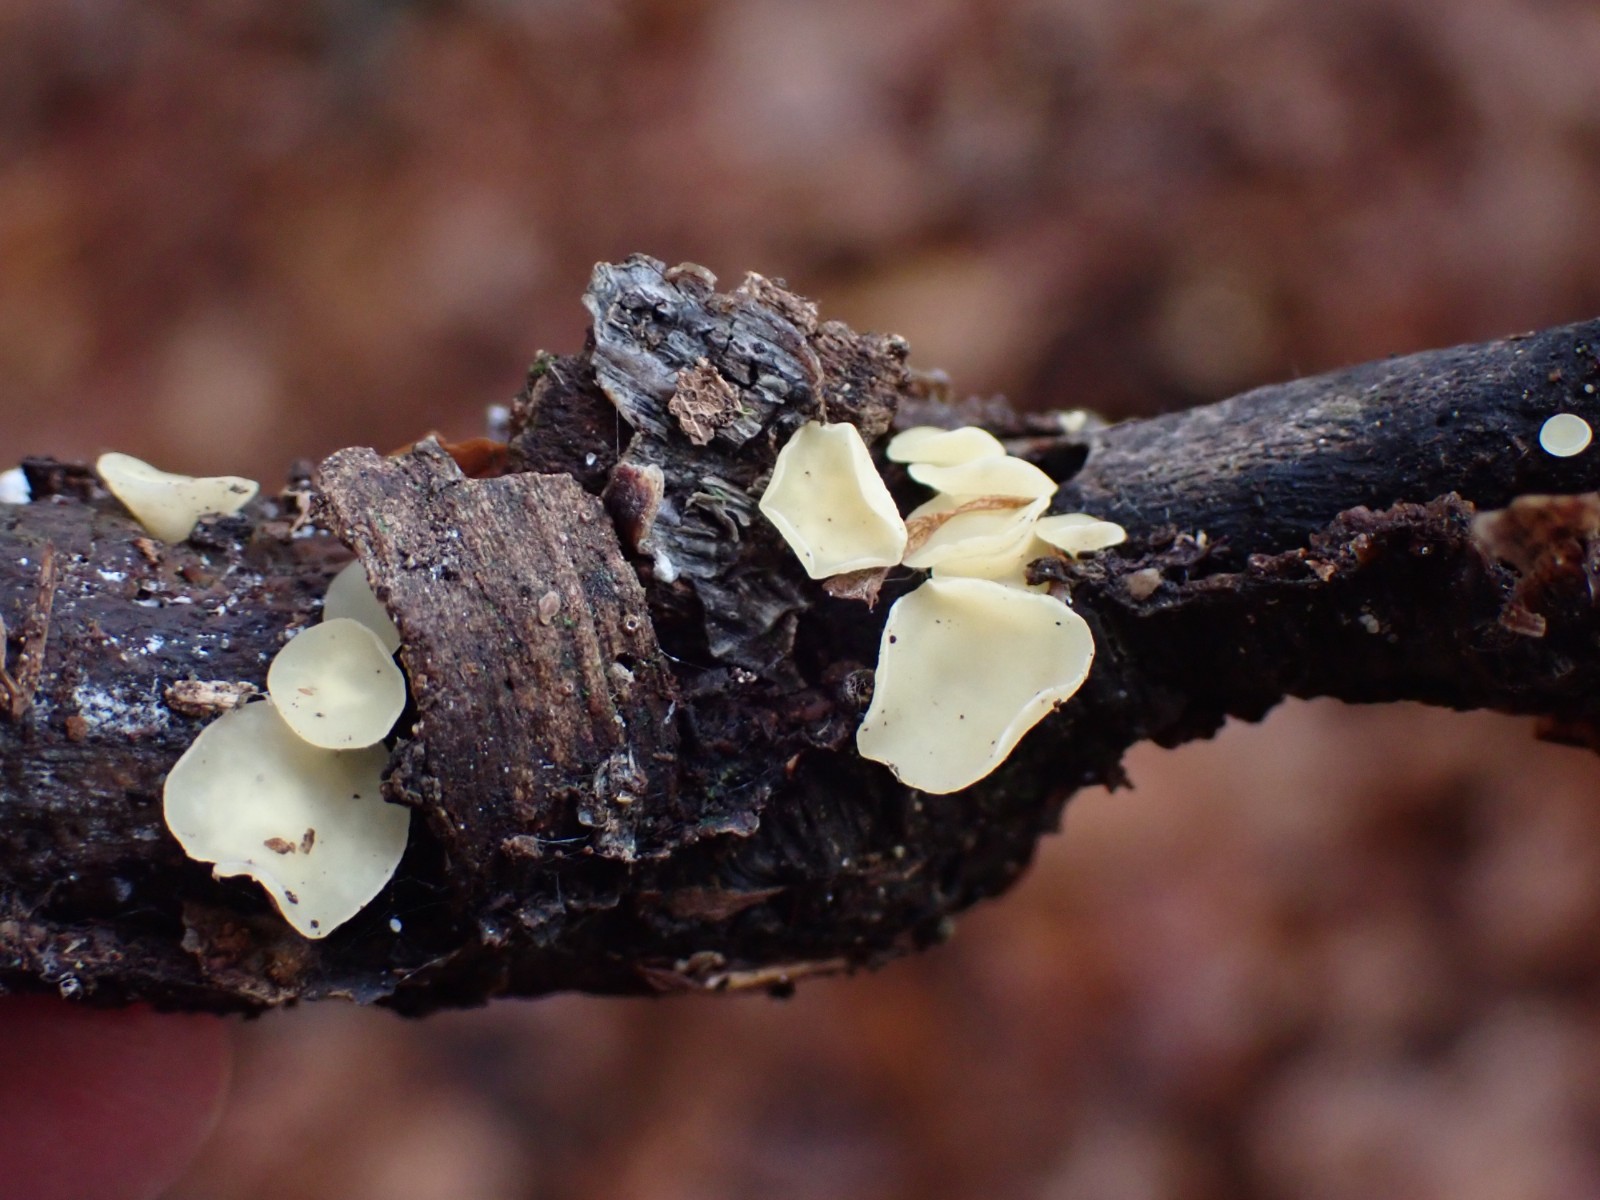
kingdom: Fungi
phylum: Ascomycota
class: Leotiomycetes
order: Helotiales
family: Helotiaceae
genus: Hymenoscyphus
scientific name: Hymenoscyphus serotinus
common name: krumsporet stilkskive
